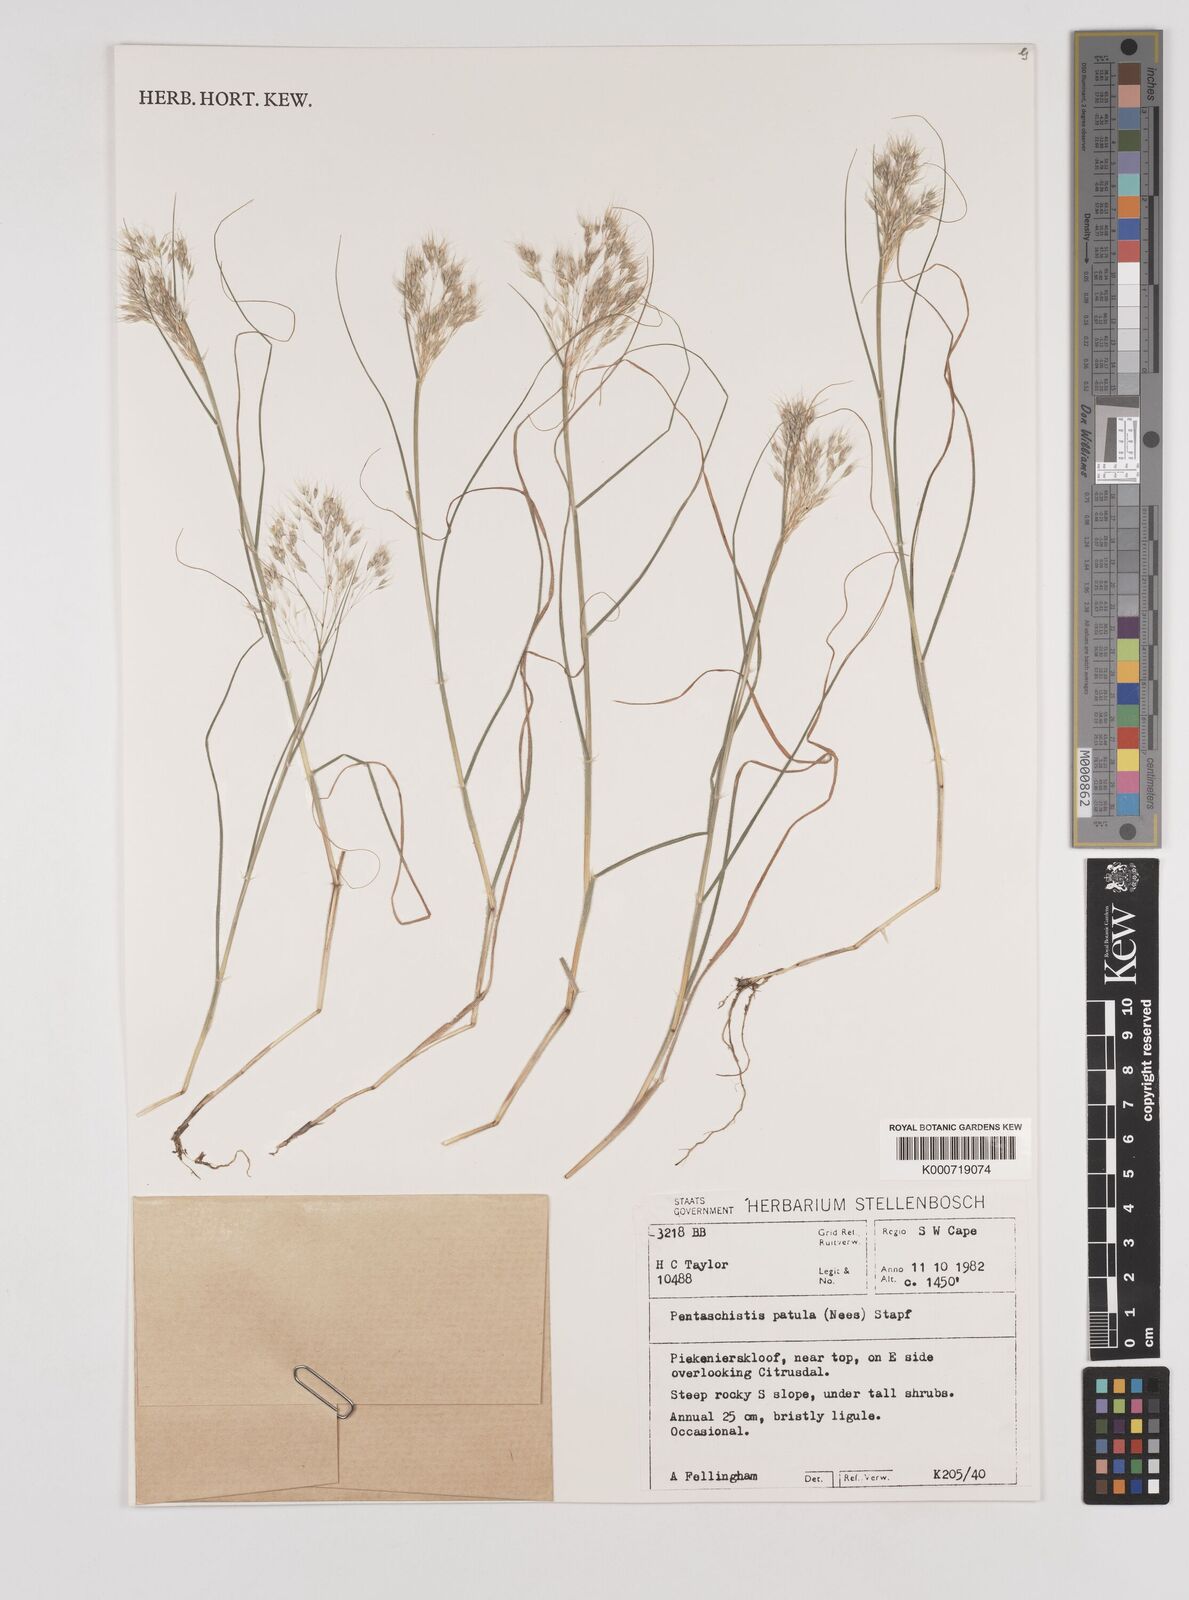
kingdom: Plantae
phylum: Tracheophyta
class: Liliopsida
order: Poales
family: Poaceae
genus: Pentameris
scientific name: Pentameris patula
